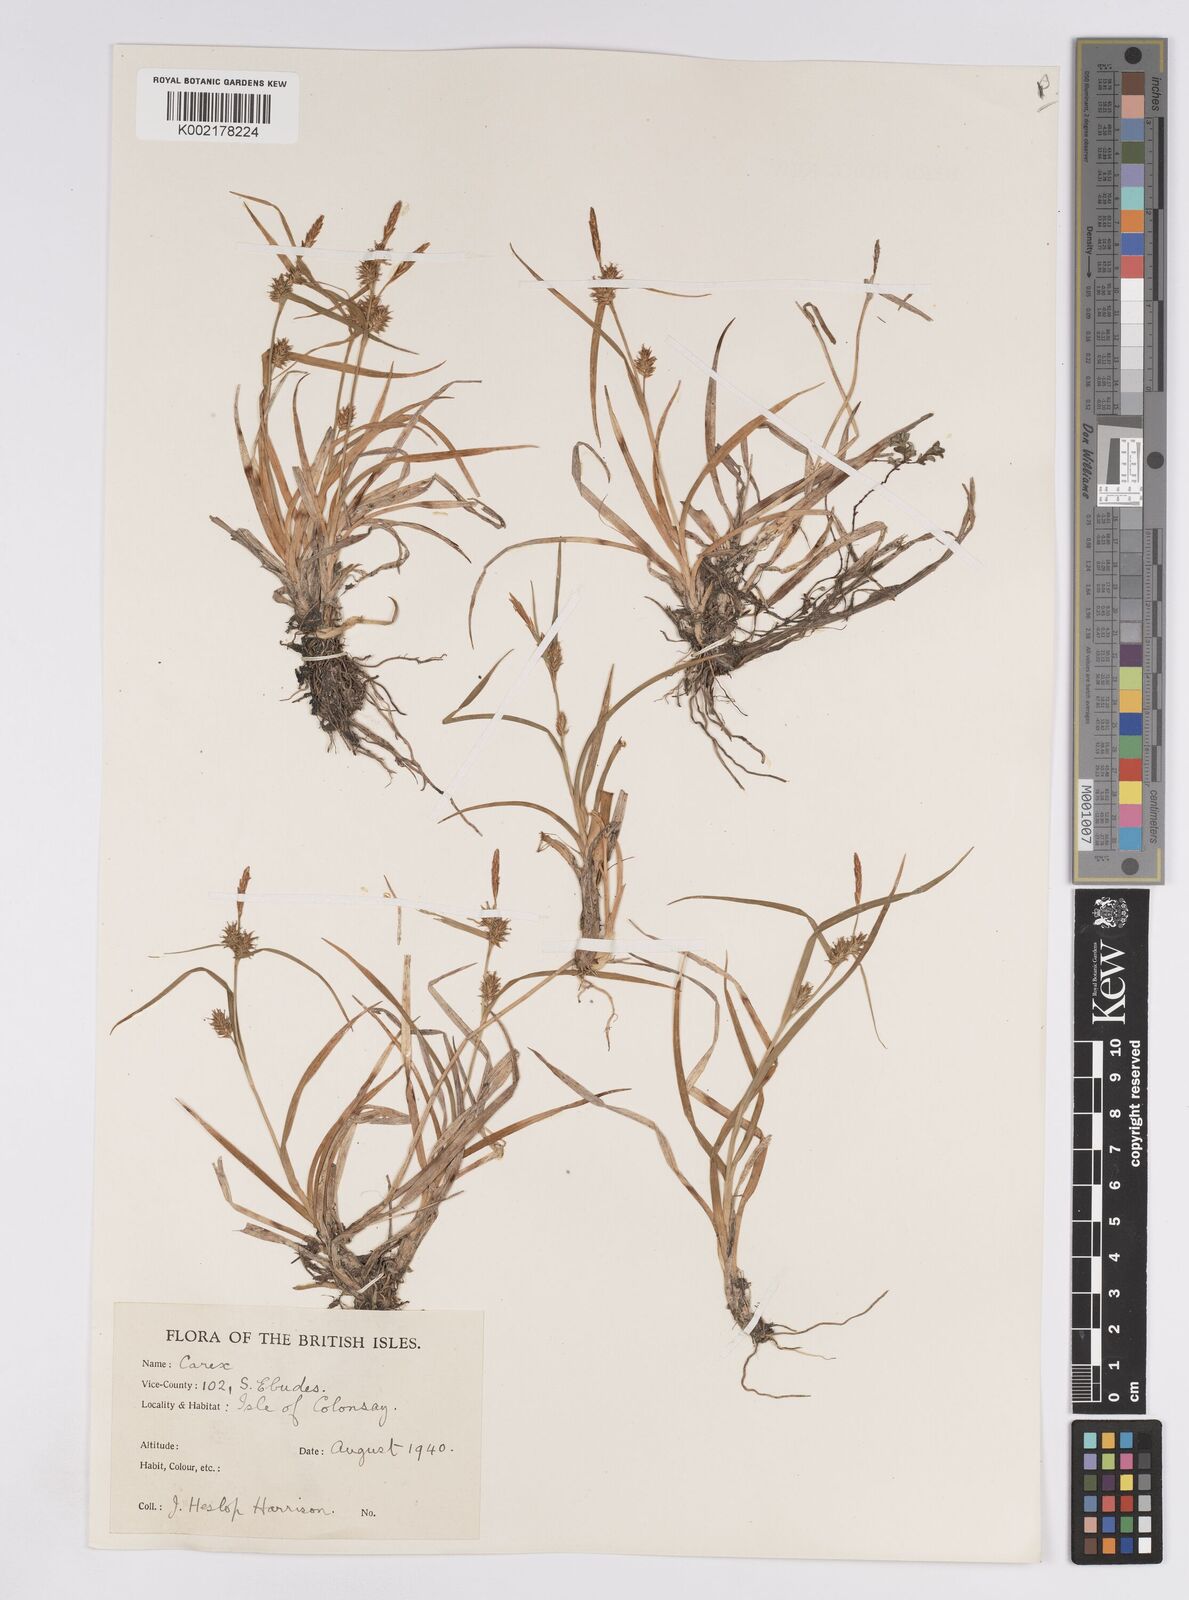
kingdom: Plantae
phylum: Tracheophyta
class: Liliopsida
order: Poales
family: Cyperaceae
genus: Carex
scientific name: Carex demissa
